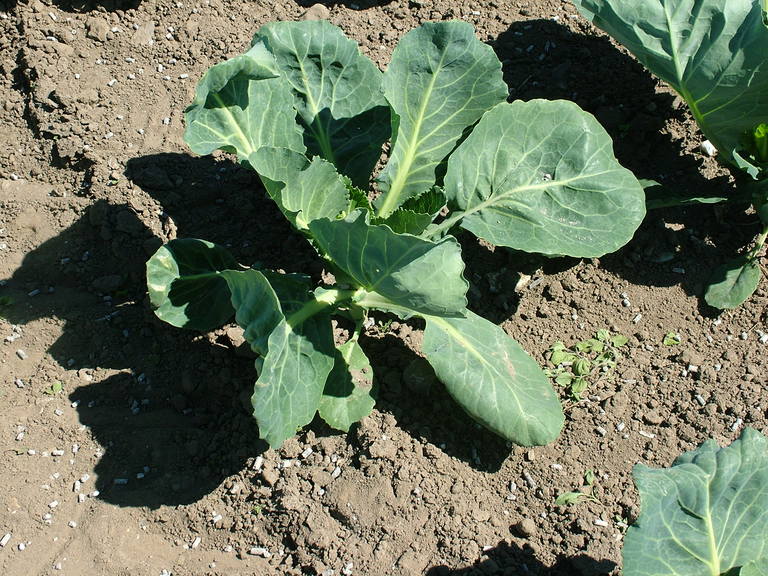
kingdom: Plantae
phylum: Tracheophyta
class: Magnoliopsida
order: Brassicales
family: Brassicaceae
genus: Brassica
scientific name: Brassica oleracea
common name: Cabbage
